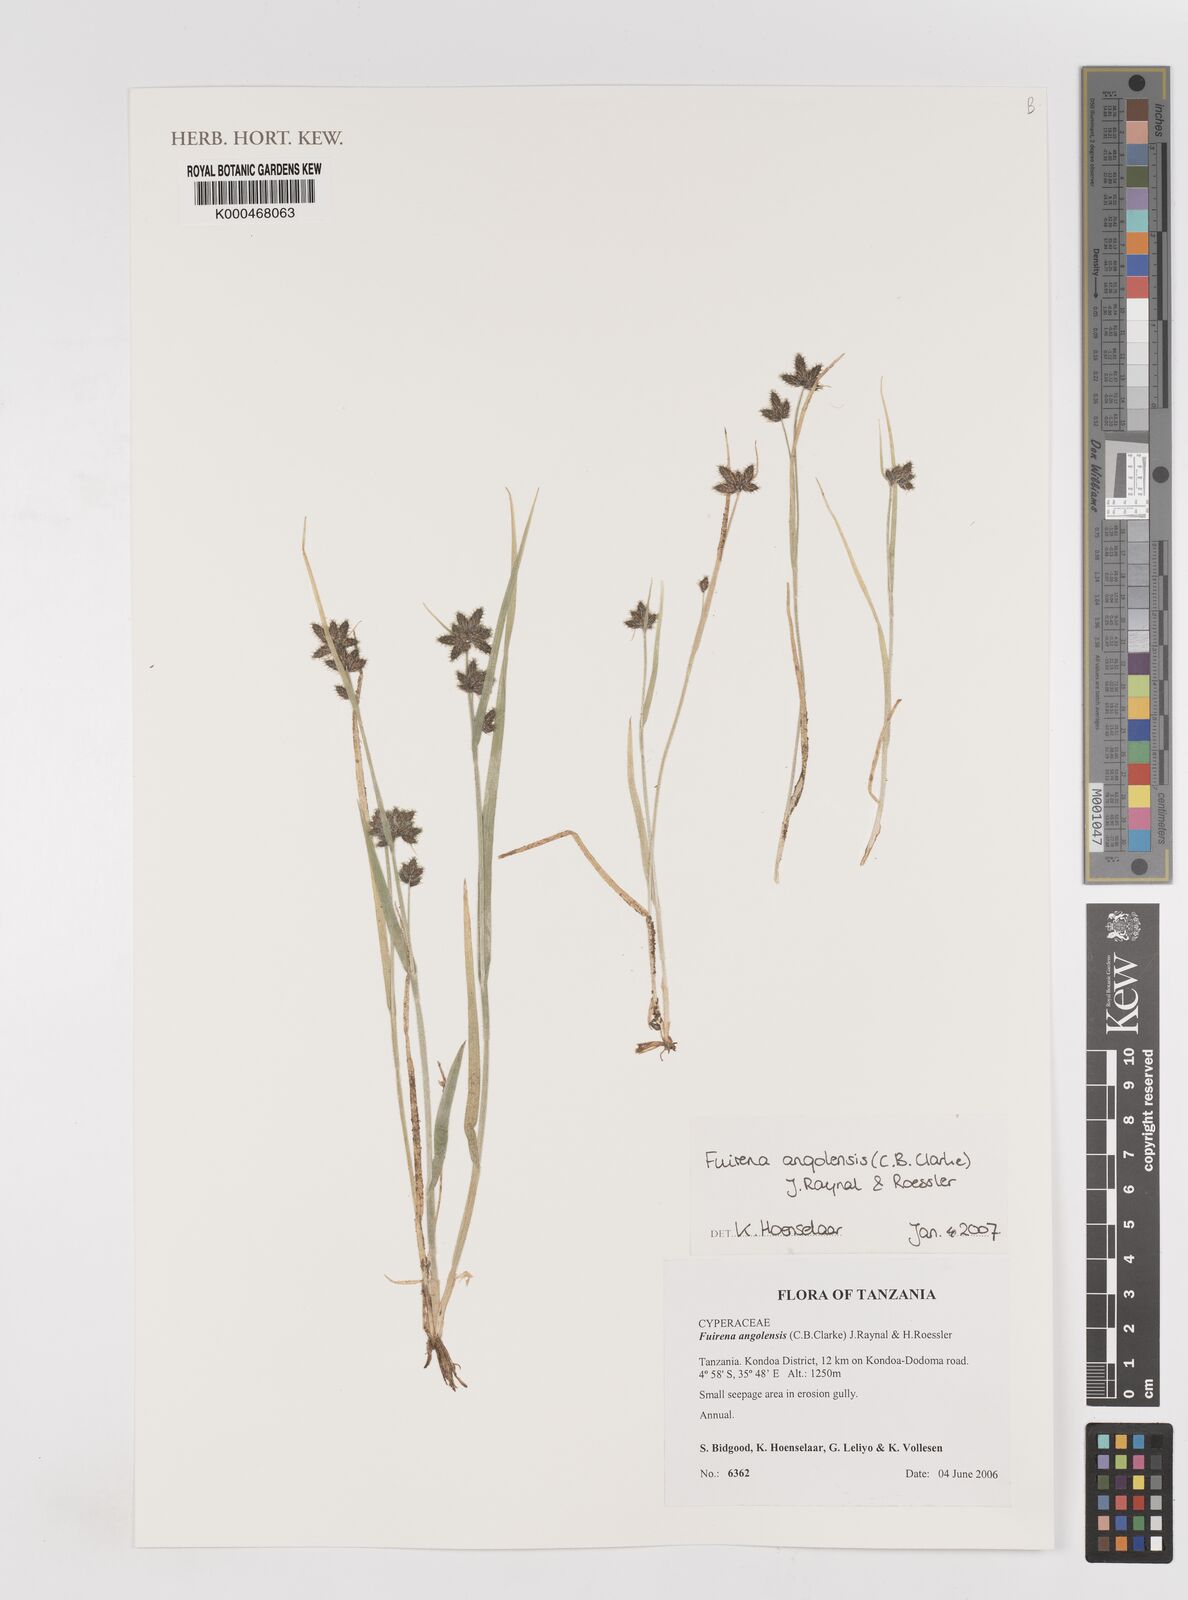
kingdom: Plantae
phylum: Tracheophyta
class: Liliopsida
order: Poales
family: Cyperaceae
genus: Fuirena
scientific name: Fuirena angolensis
